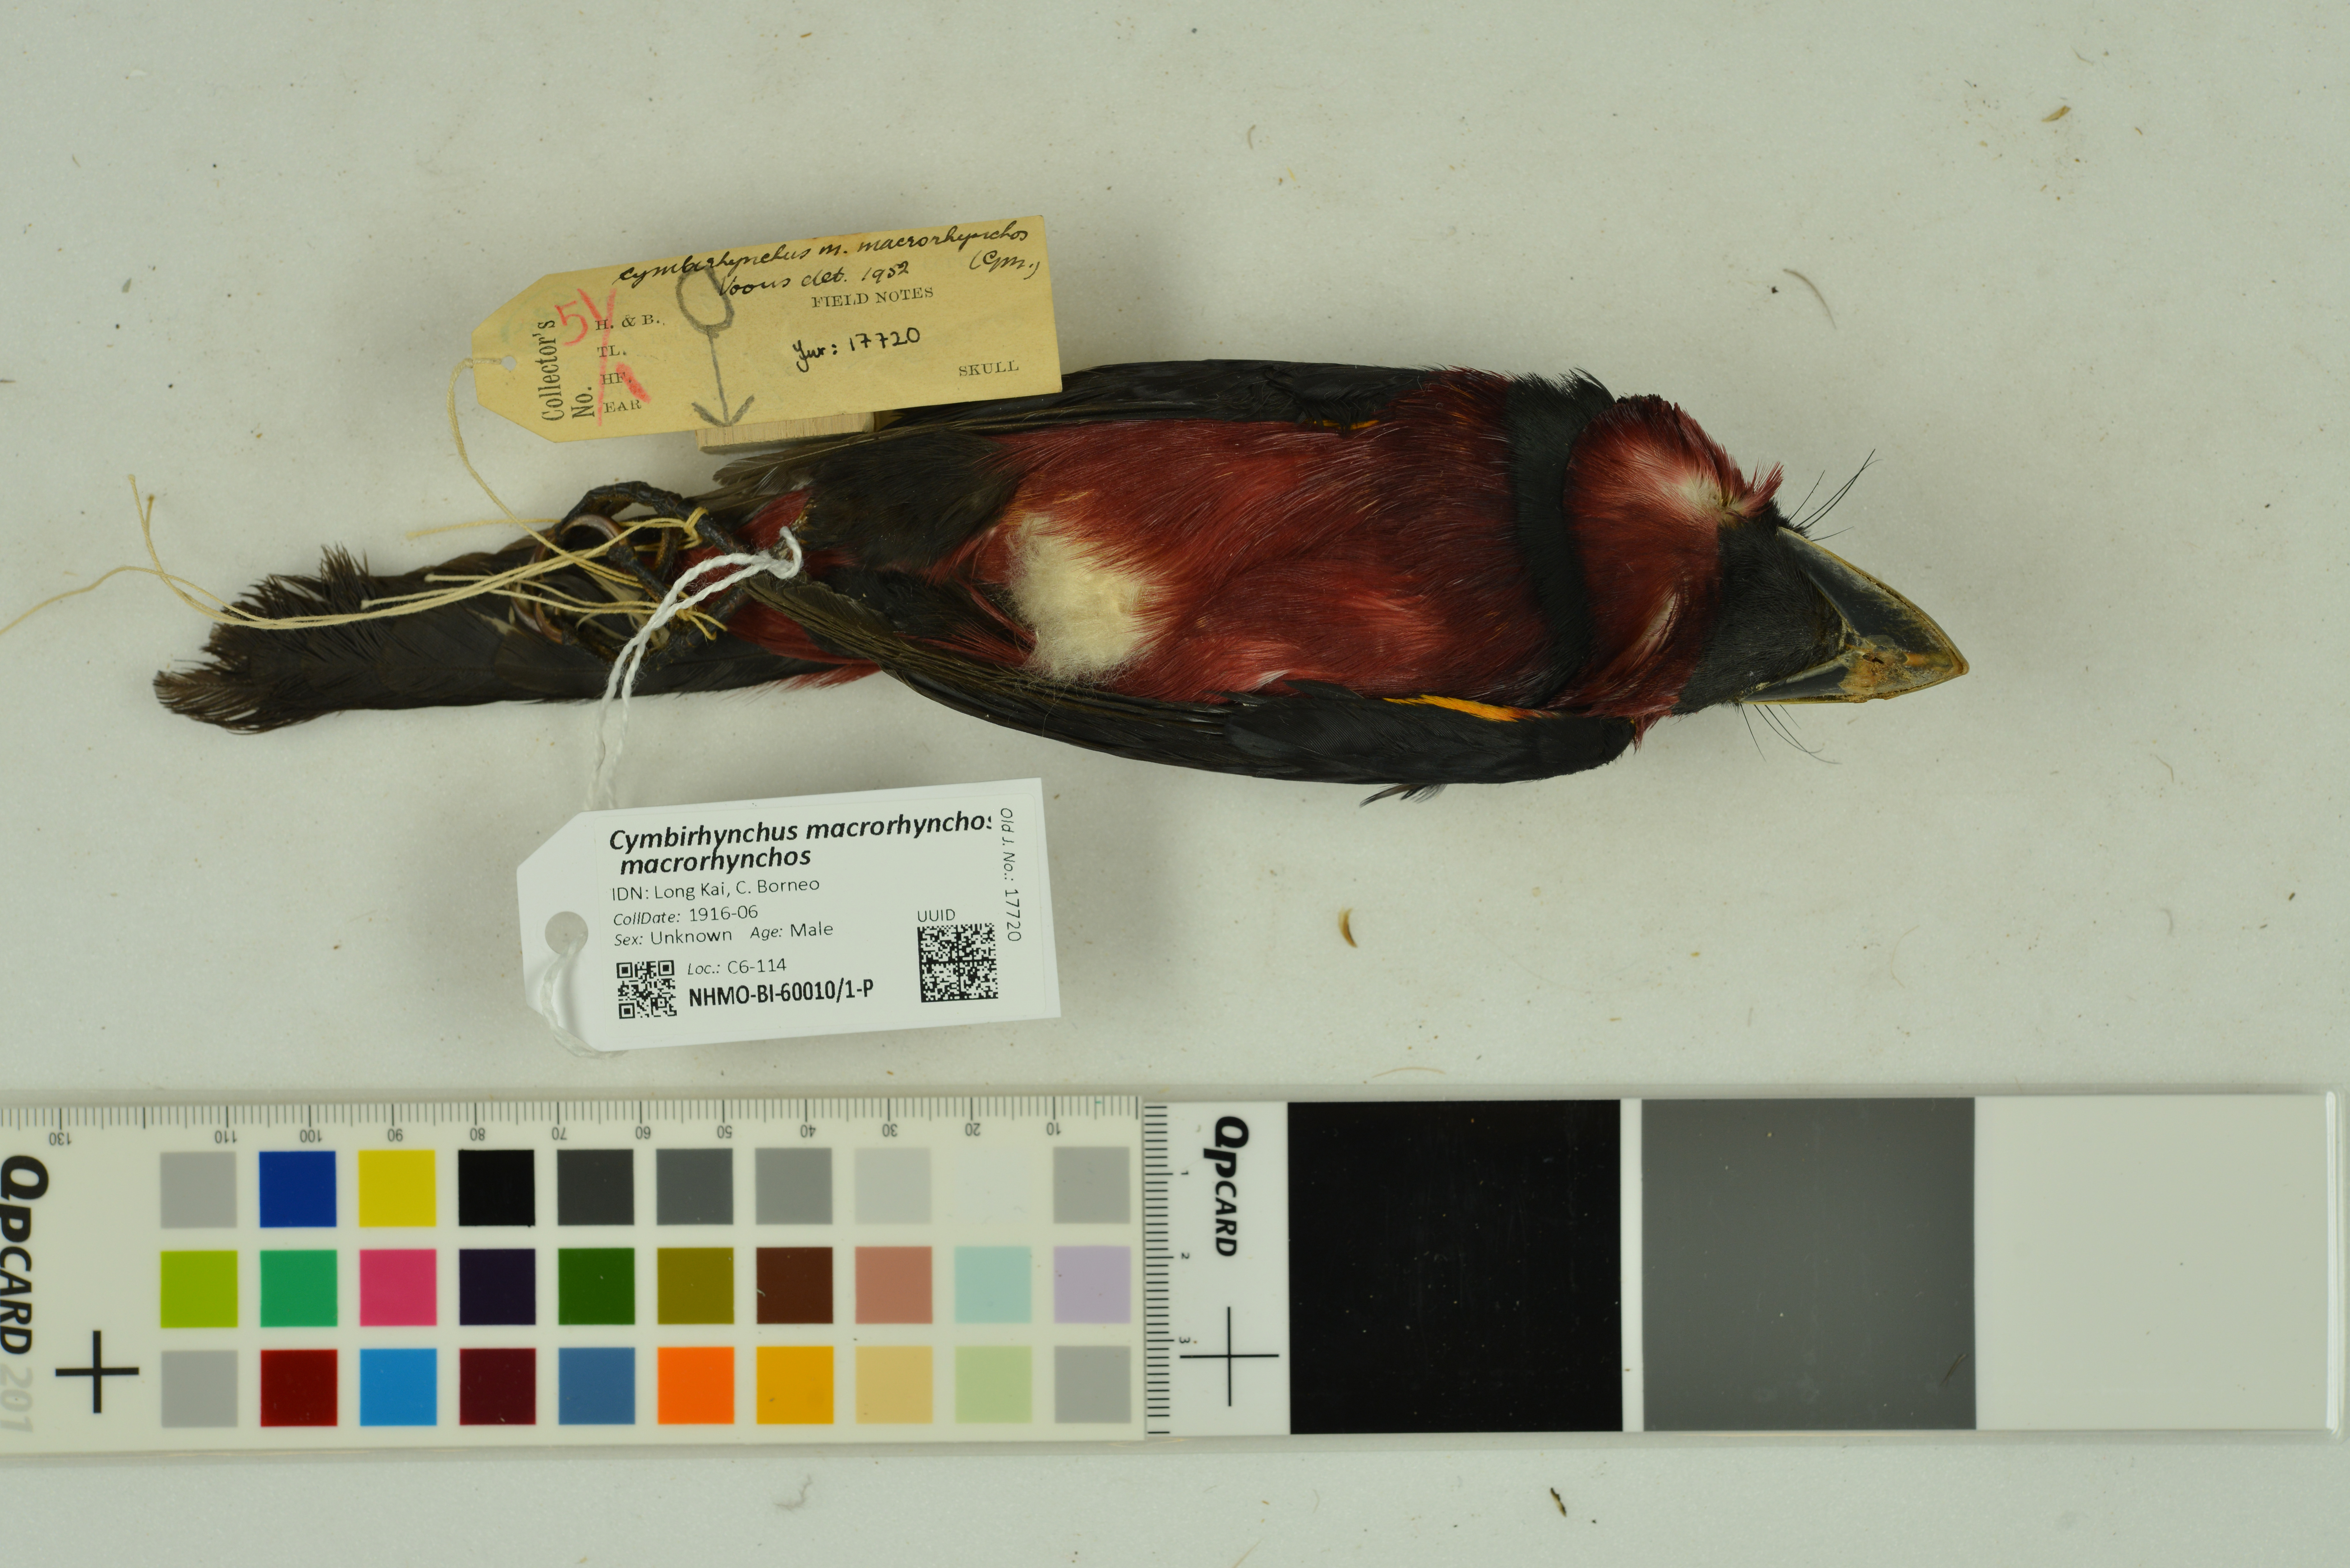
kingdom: Animalia
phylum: Chordata
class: Aves
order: Passeriformes
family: Eurylaimidae
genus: Cymbirhynchus
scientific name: Cymbirhynchus macrorhynchos
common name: Black-and-red broadbill
